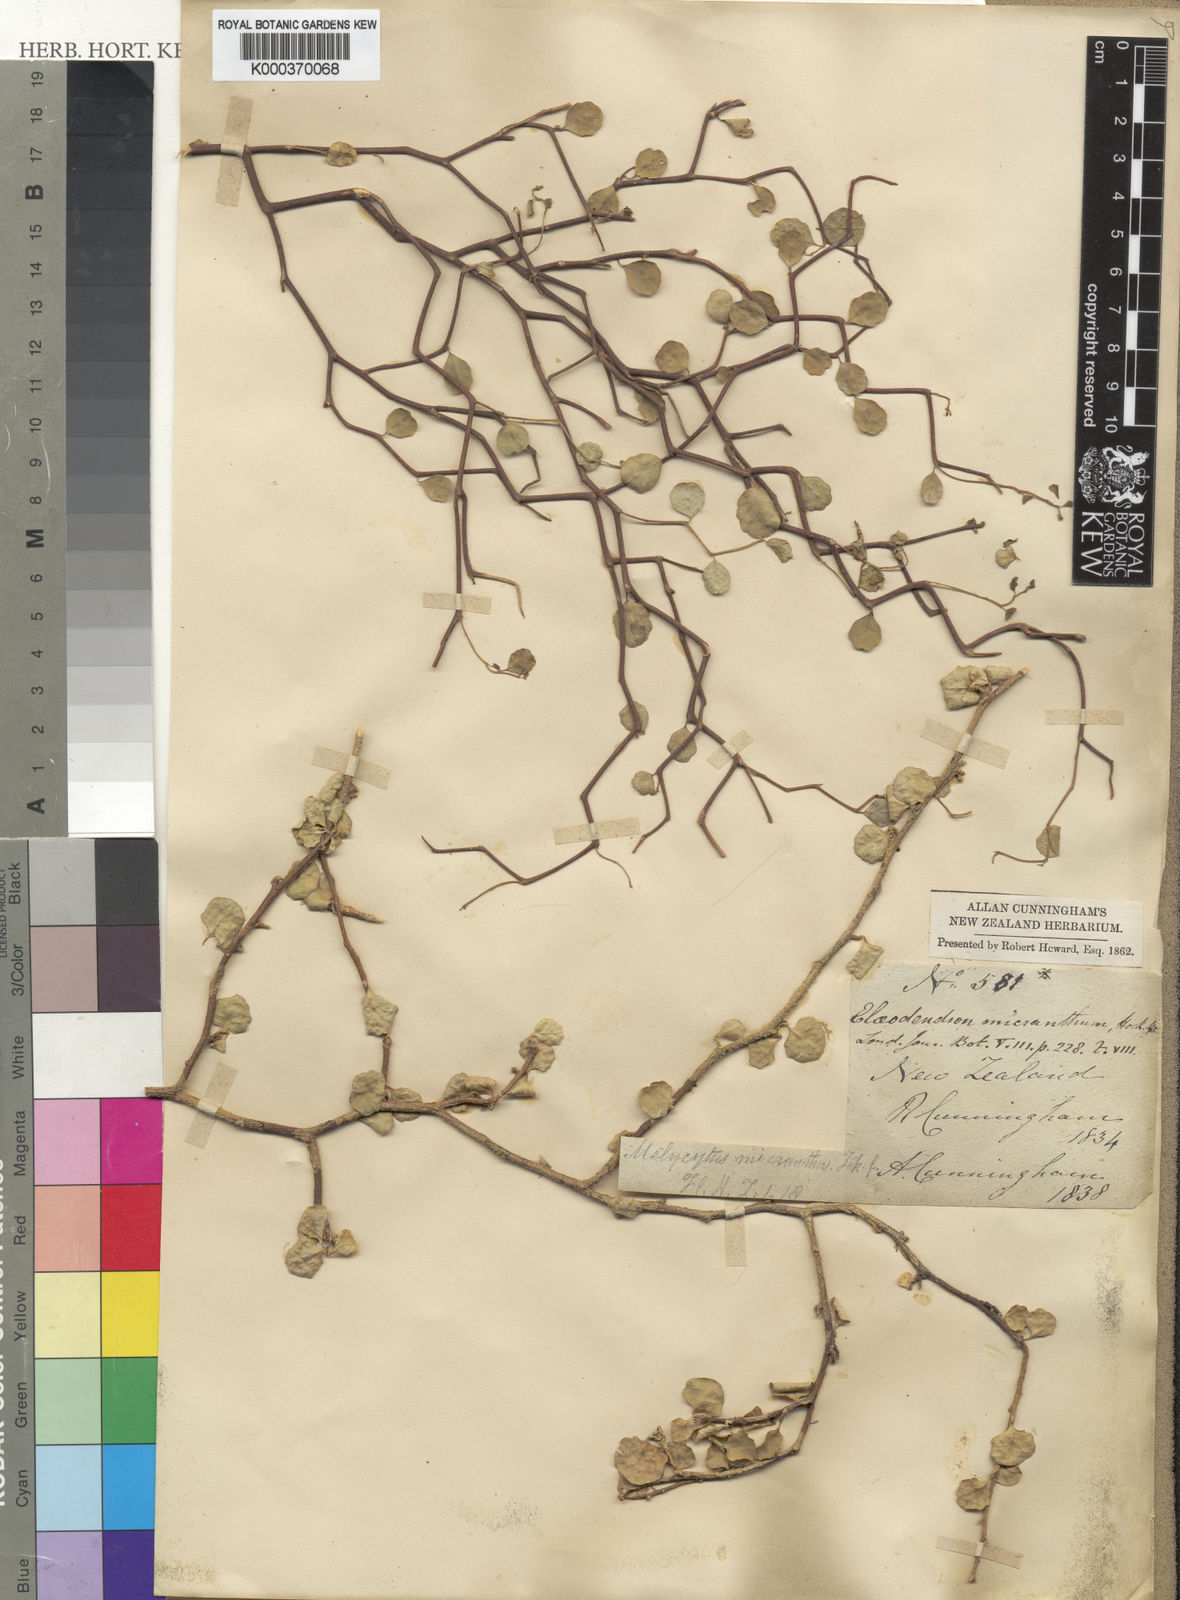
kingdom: Plantae
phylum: Tracheophyta
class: Magnoliopsida
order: Malpighiales
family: Violaceae
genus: Melicytus
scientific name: Melicytus micranthus
